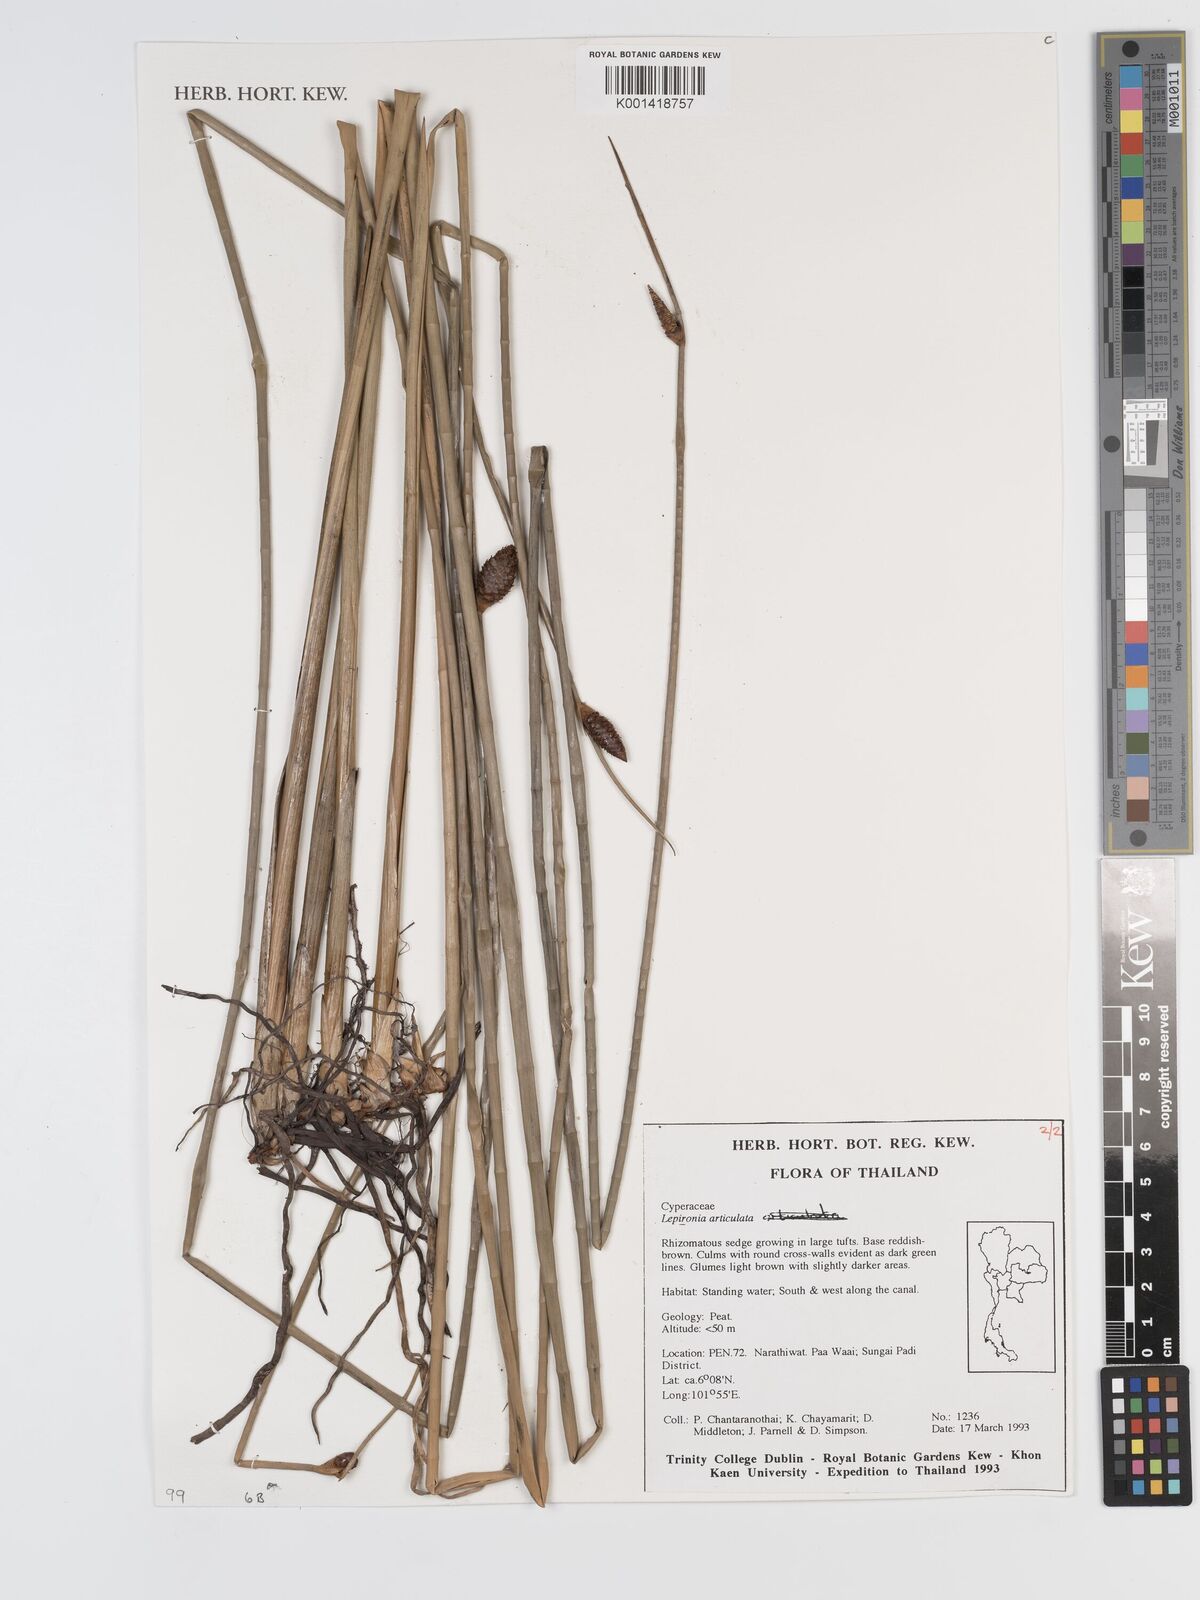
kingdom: Plantae
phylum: Tracheophyta
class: Liliopsida
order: Poales
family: Cyperaceae
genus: Lepironia
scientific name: Lepironia articulata
